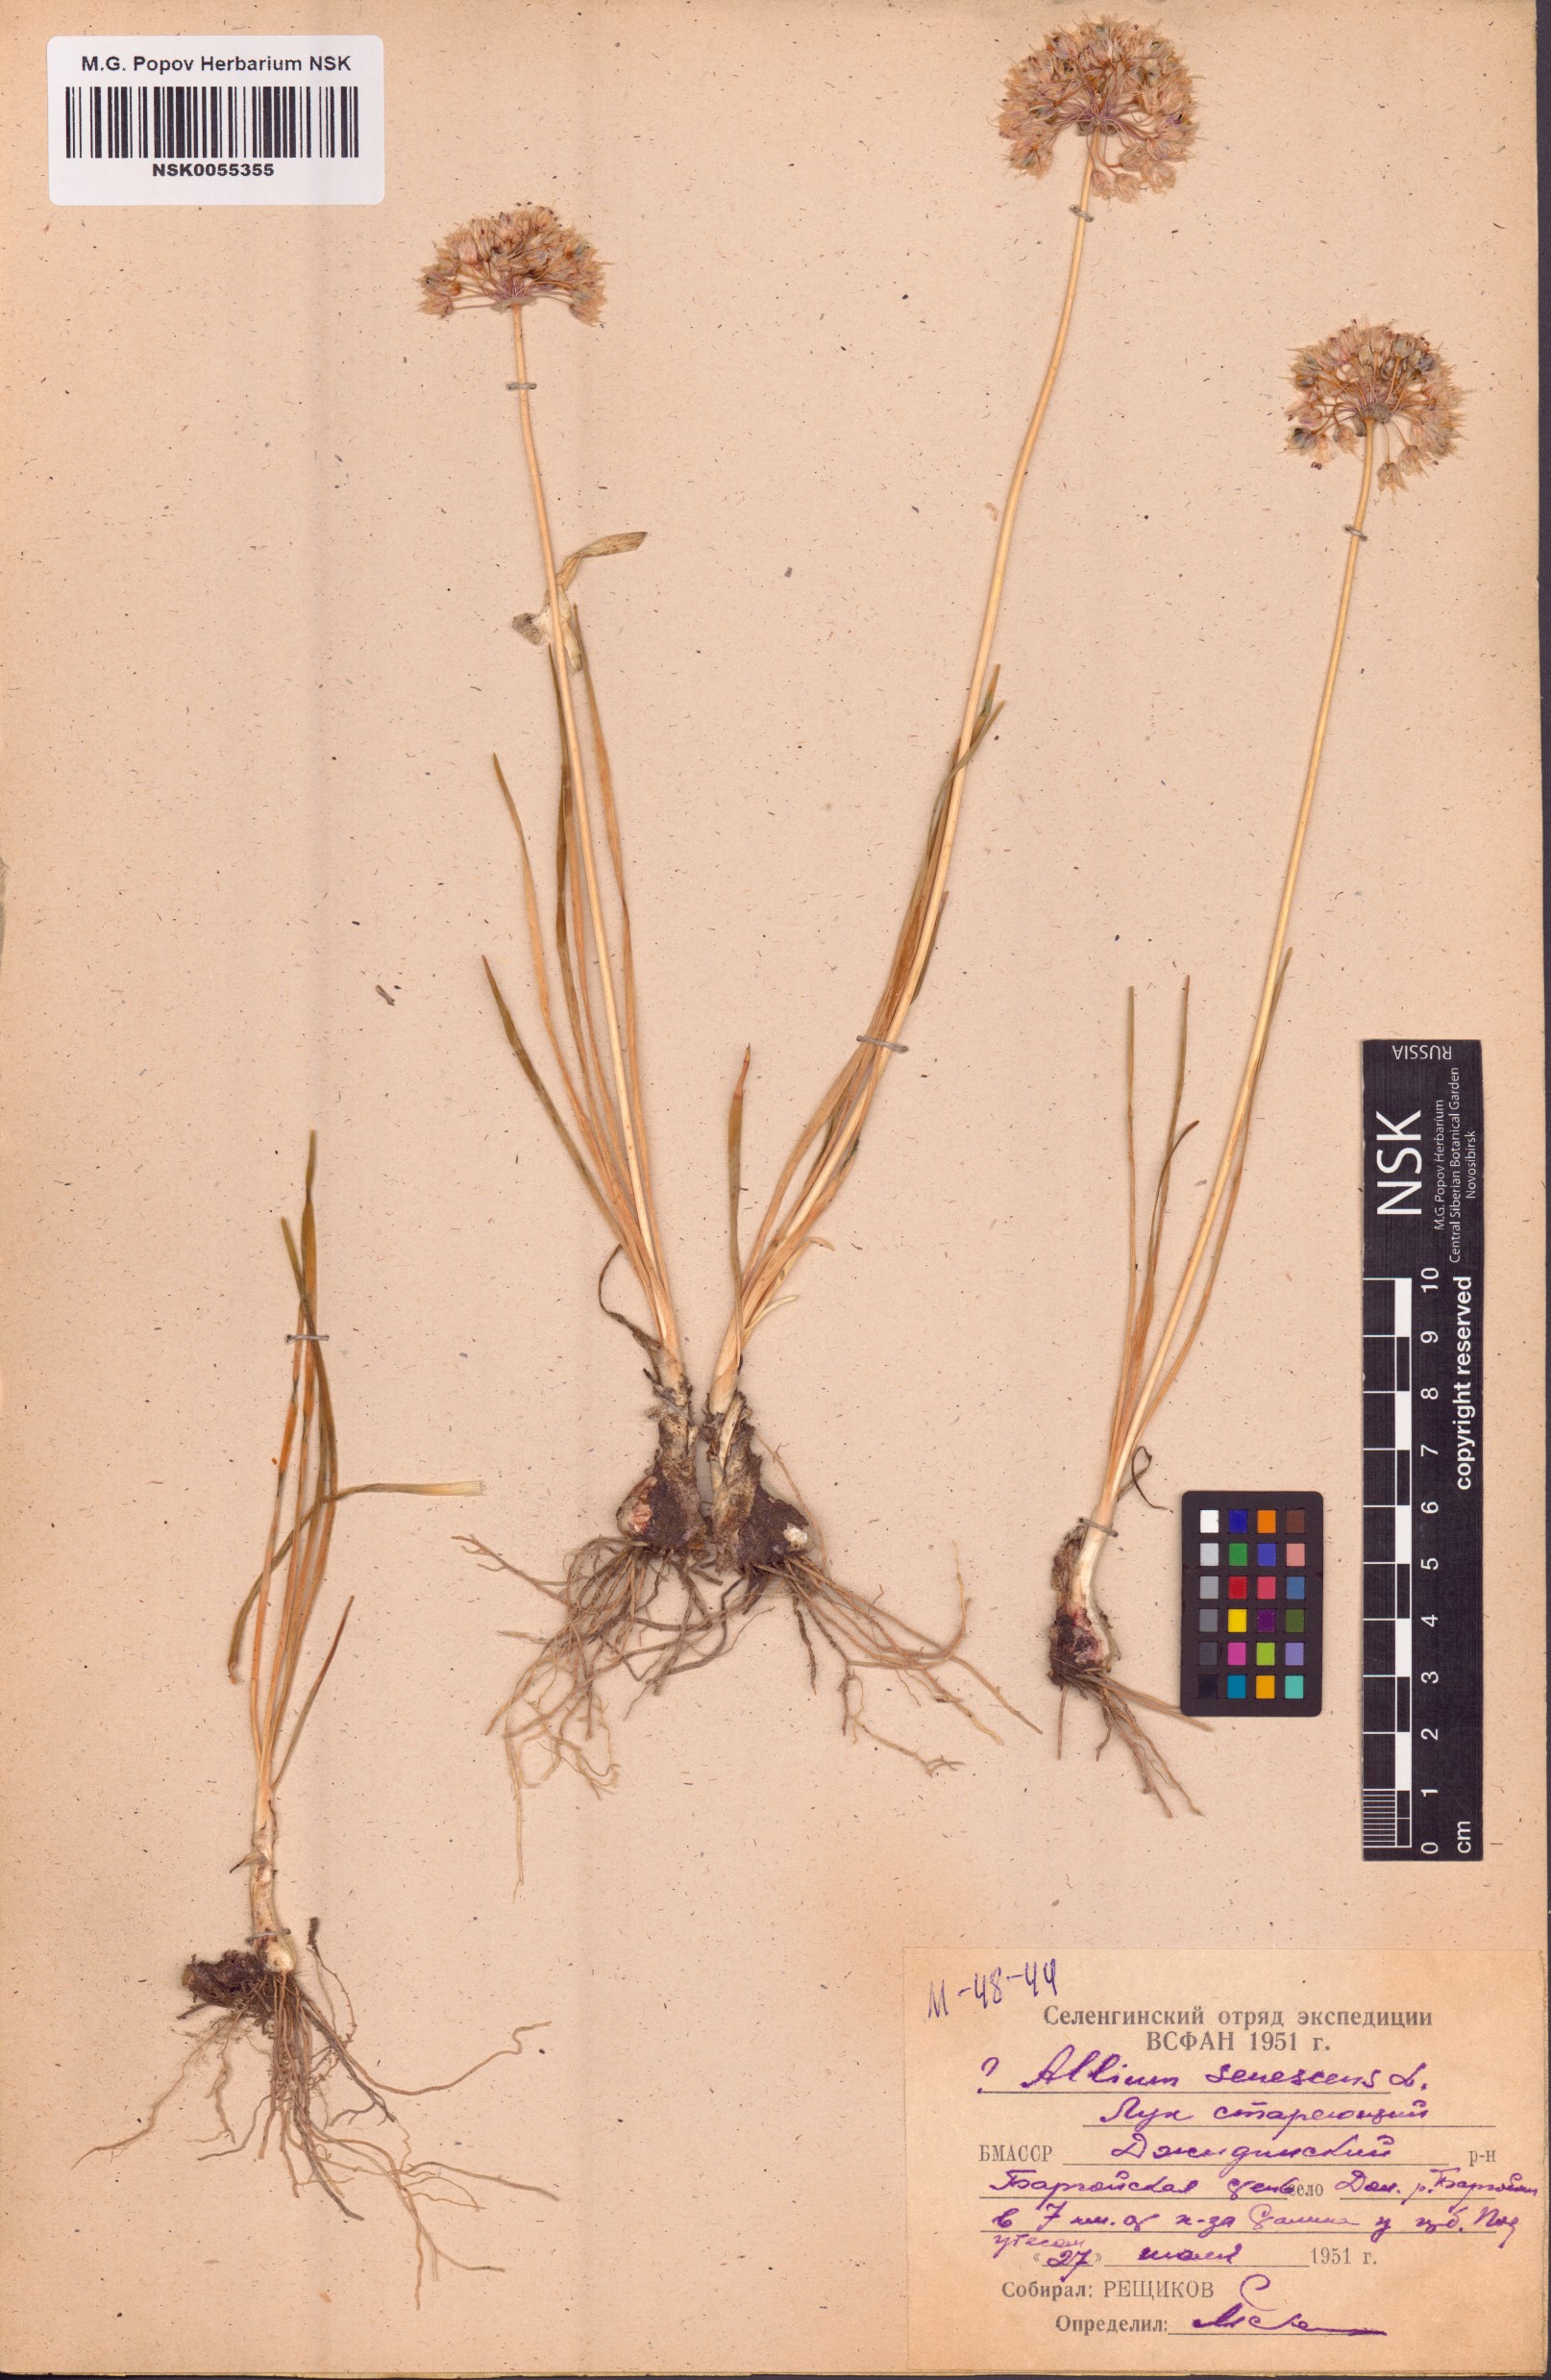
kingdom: Plantae
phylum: Tracheophyta
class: Liliopsida
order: Asparagales
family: Amaryllidaceae
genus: Allium
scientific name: Allium senescens
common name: German garlic
